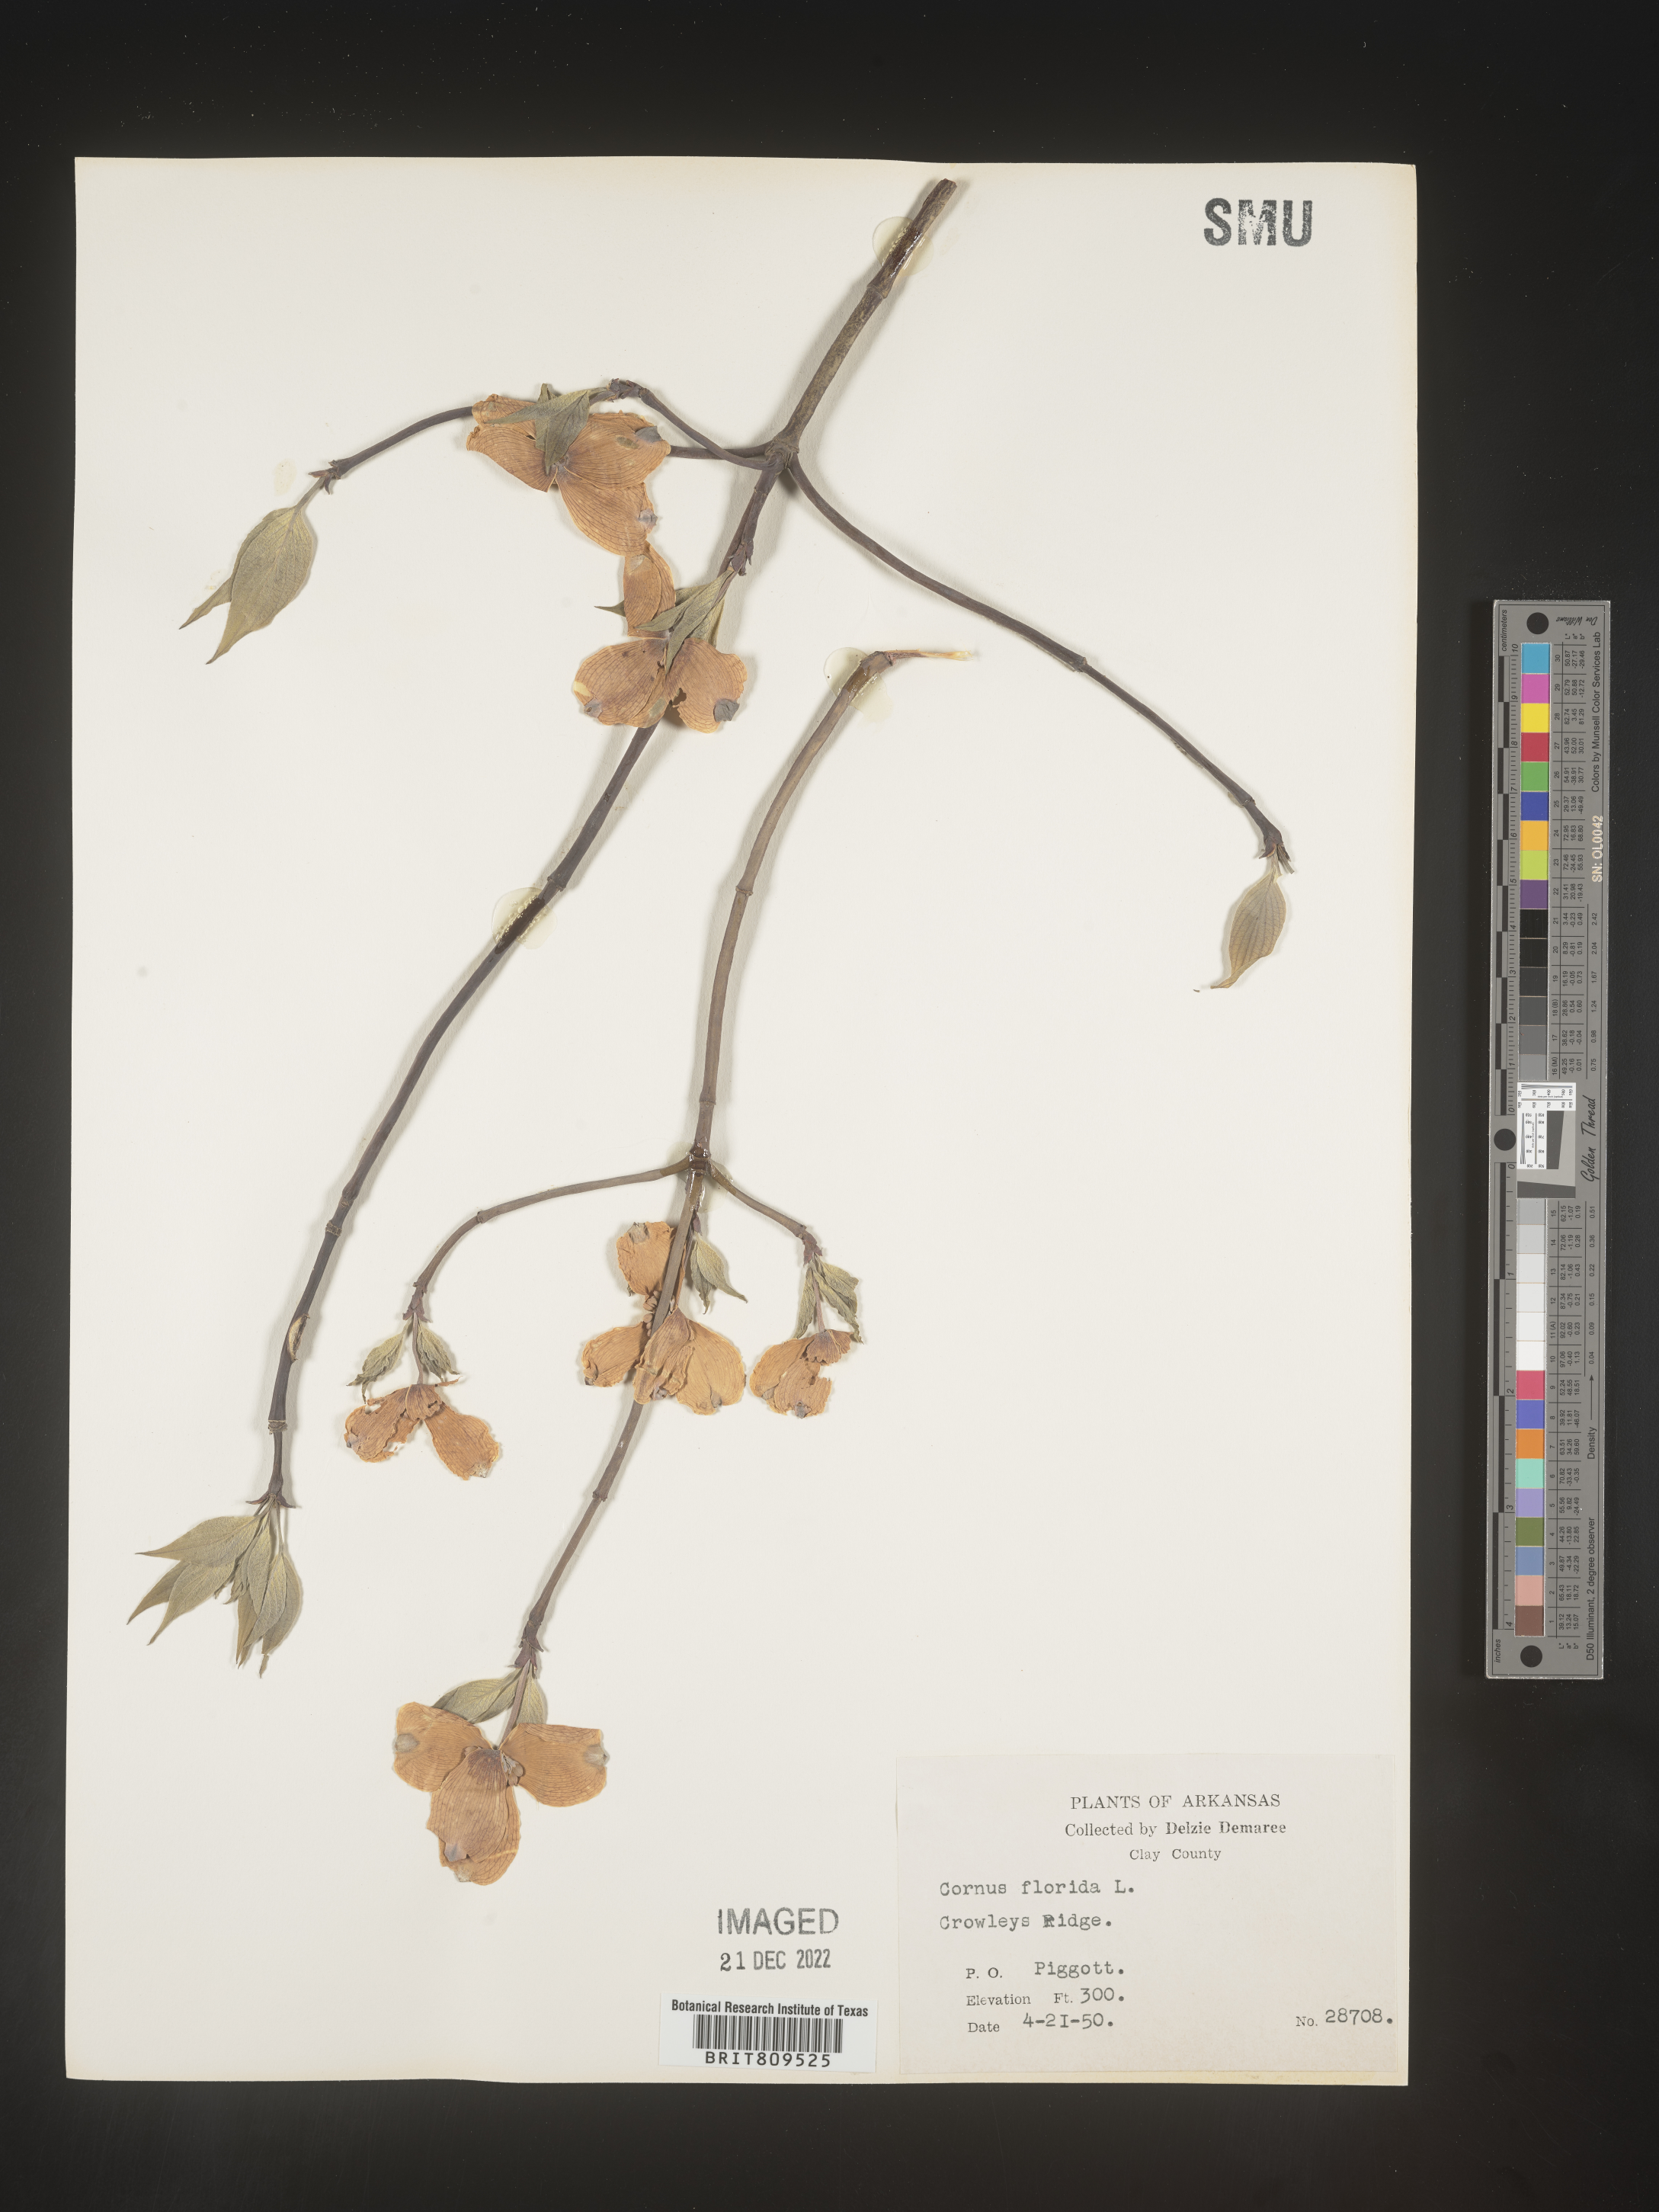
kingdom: Plantae
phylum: Tracheophyta
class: Magnoliopsida
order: Cornales
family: Cornaceae
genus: Cornus
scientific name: Cornus florida
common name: Flowering dogwood
